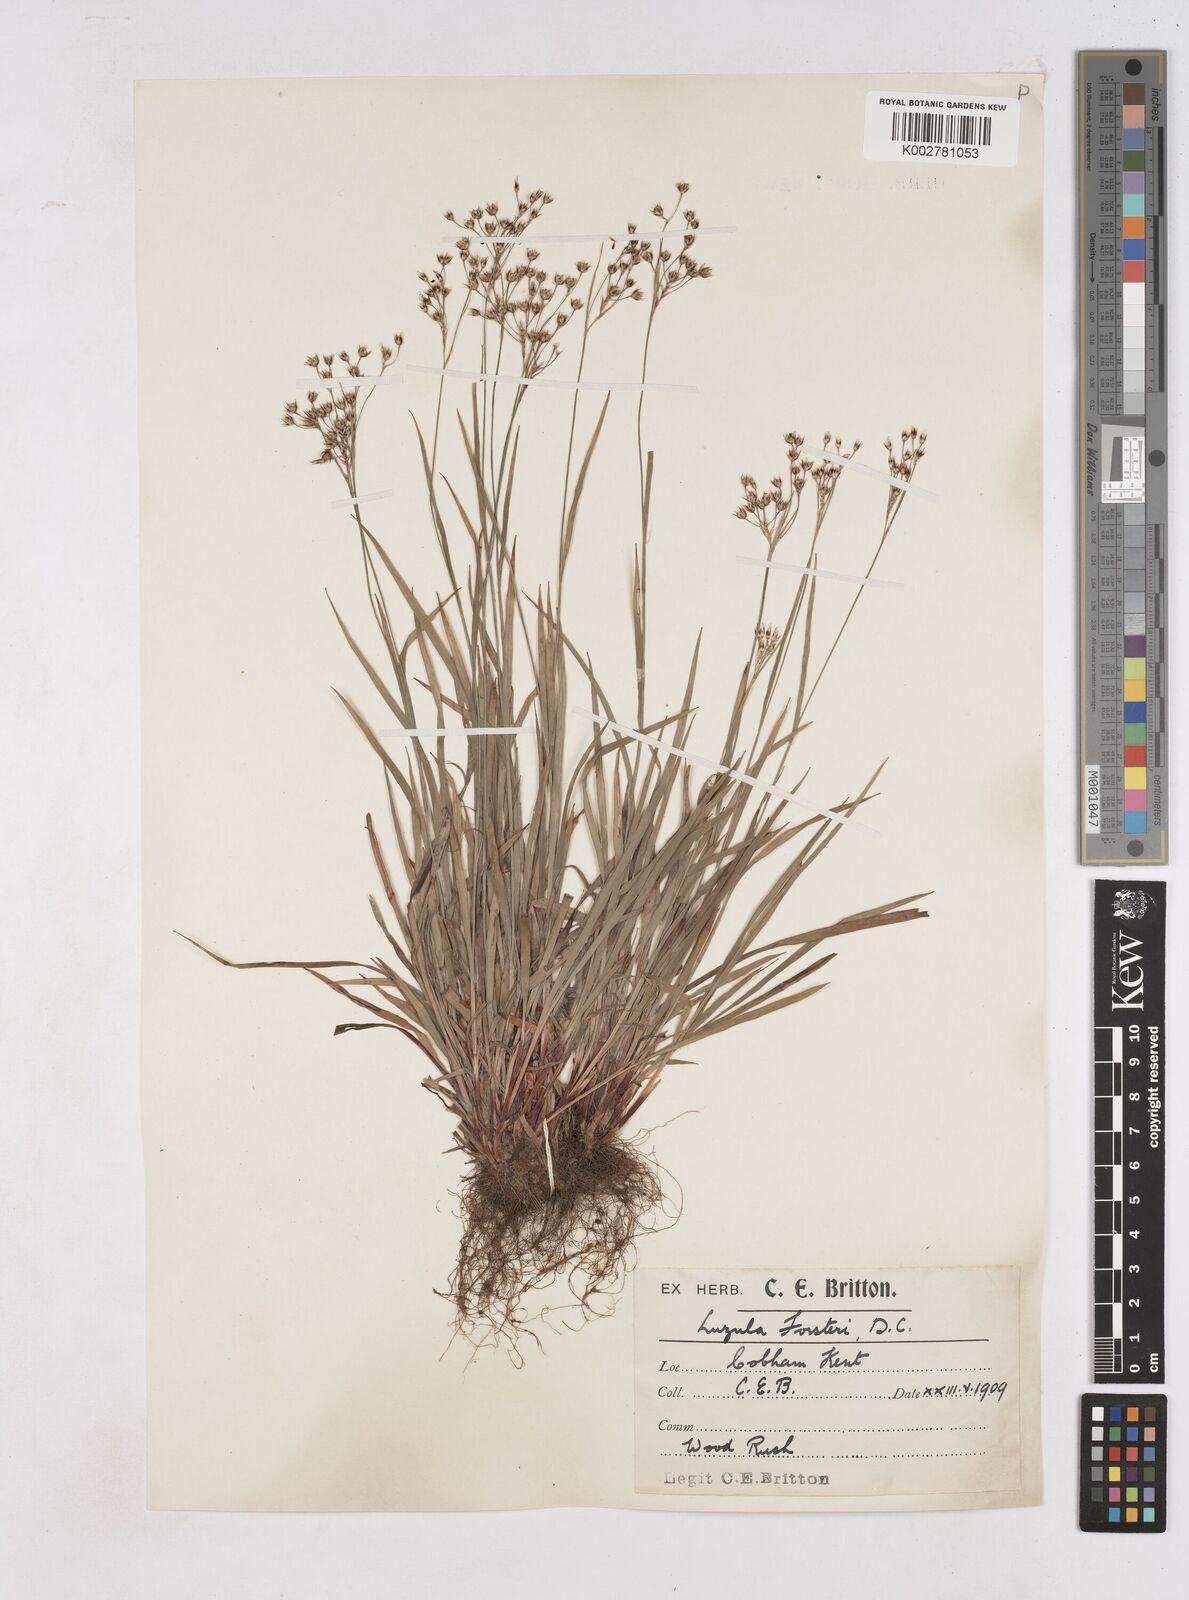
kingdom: Plantae
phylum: Tracheophyta
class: Liliopsida
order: Poales
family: Juncaceae
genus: Luzula
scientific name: Luzula forsteri
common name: Southern wood-rush
